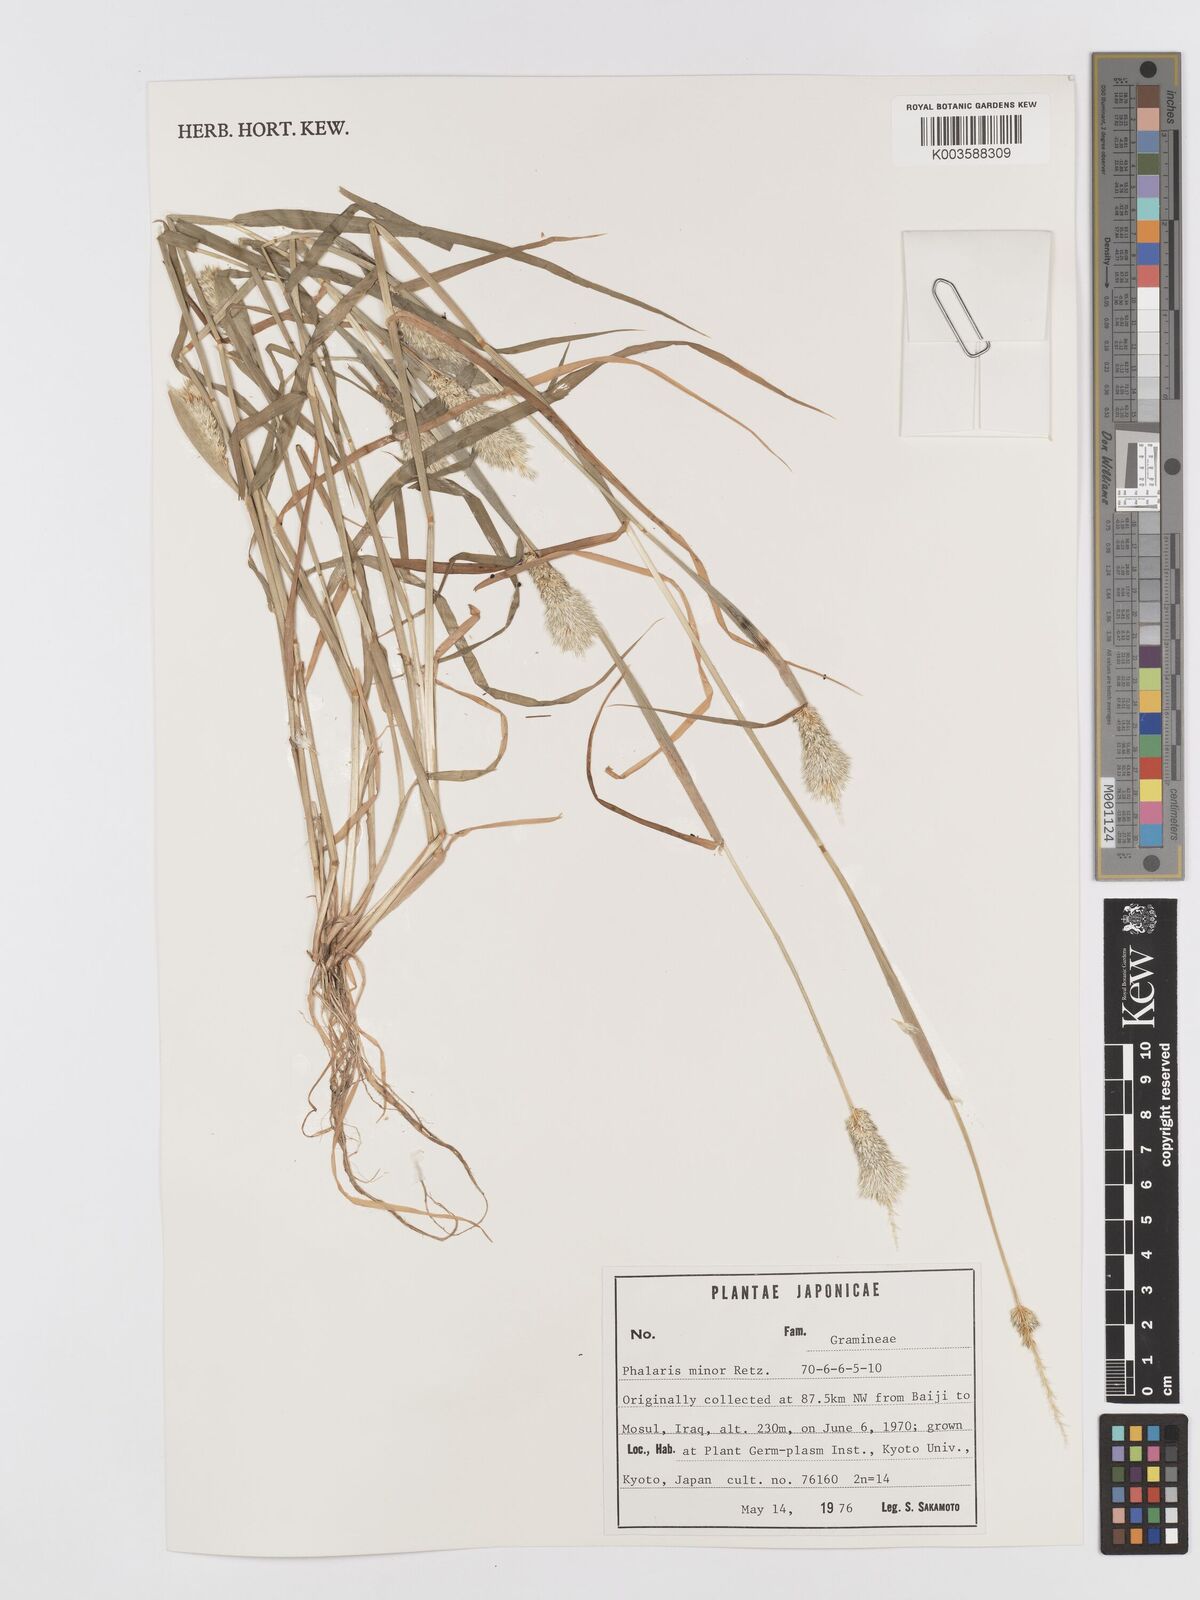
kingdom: Plantae
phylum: Tracheophyta
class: Liliopsida
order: Poales
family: Poaceae
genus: Phalaris
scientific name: Phalaris minor
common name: Littleseed canarygrass
